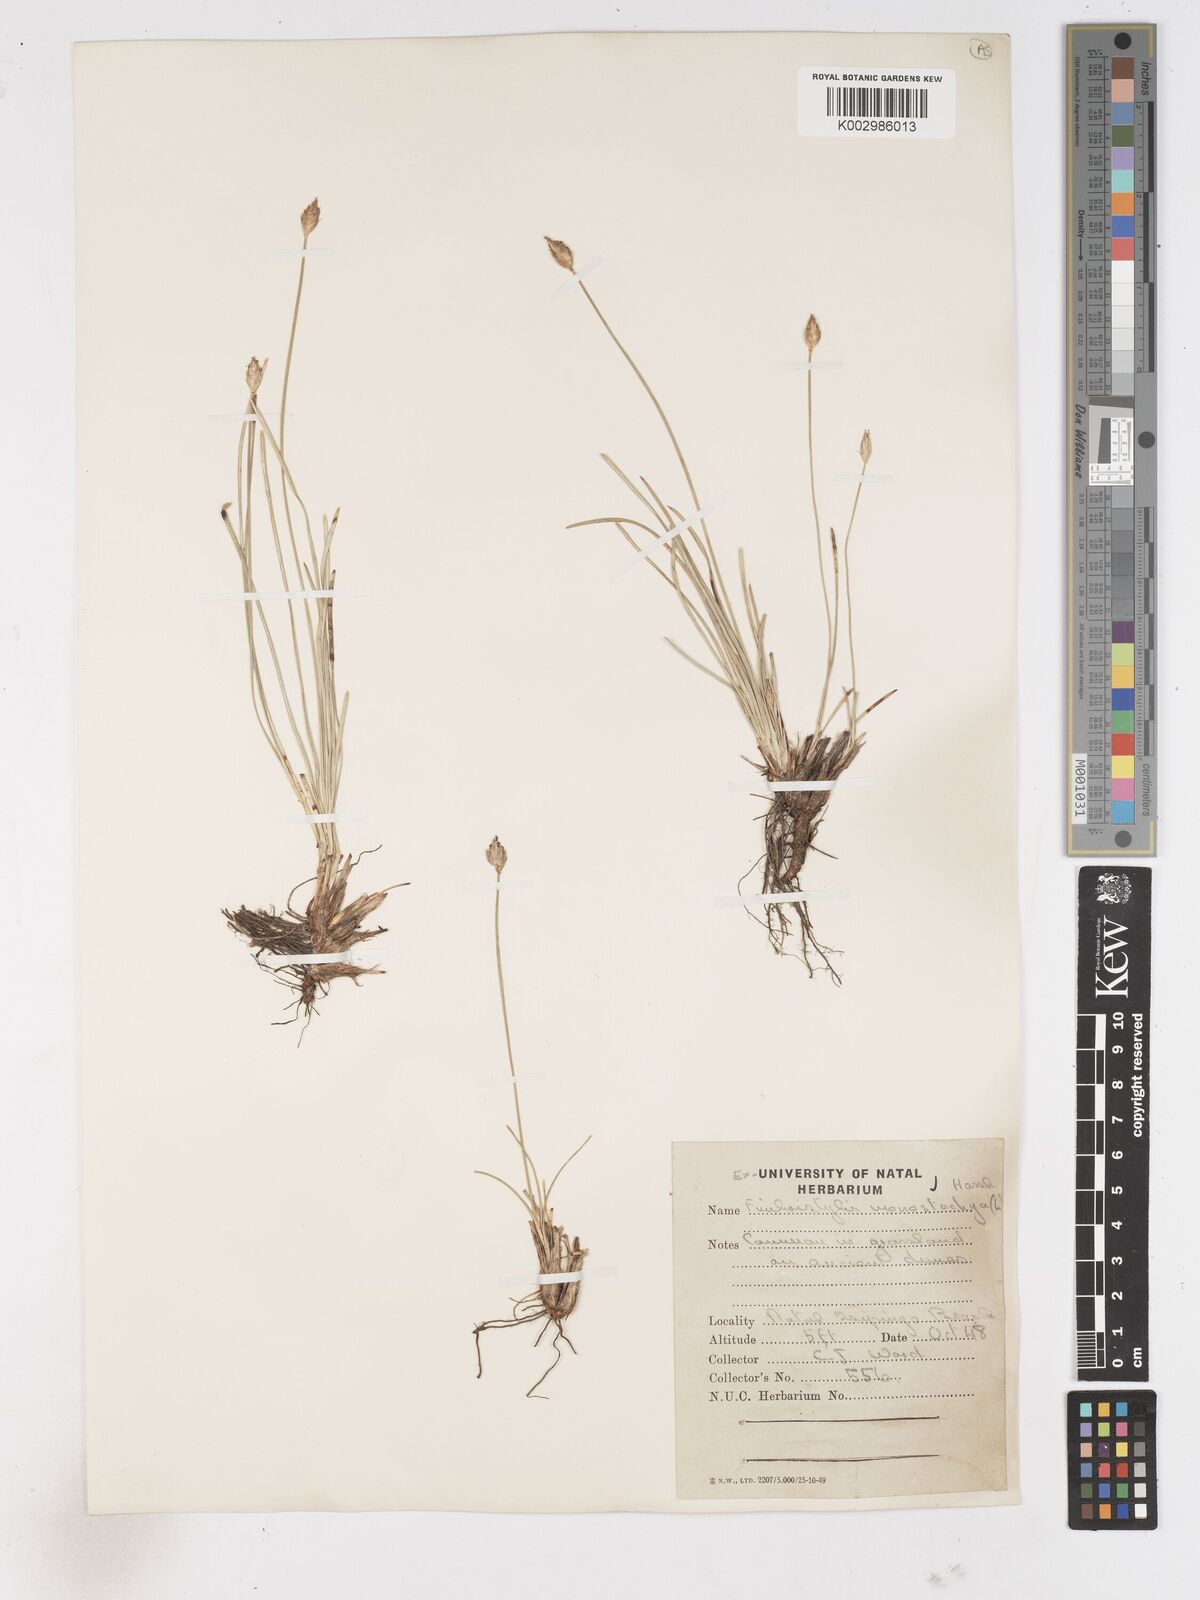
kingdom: Plantae
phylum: Tracheophyta
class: Liliopsida
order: Poales
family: Cyperaceae
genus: Abildgaardia
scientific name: Abildgaardia ovata
